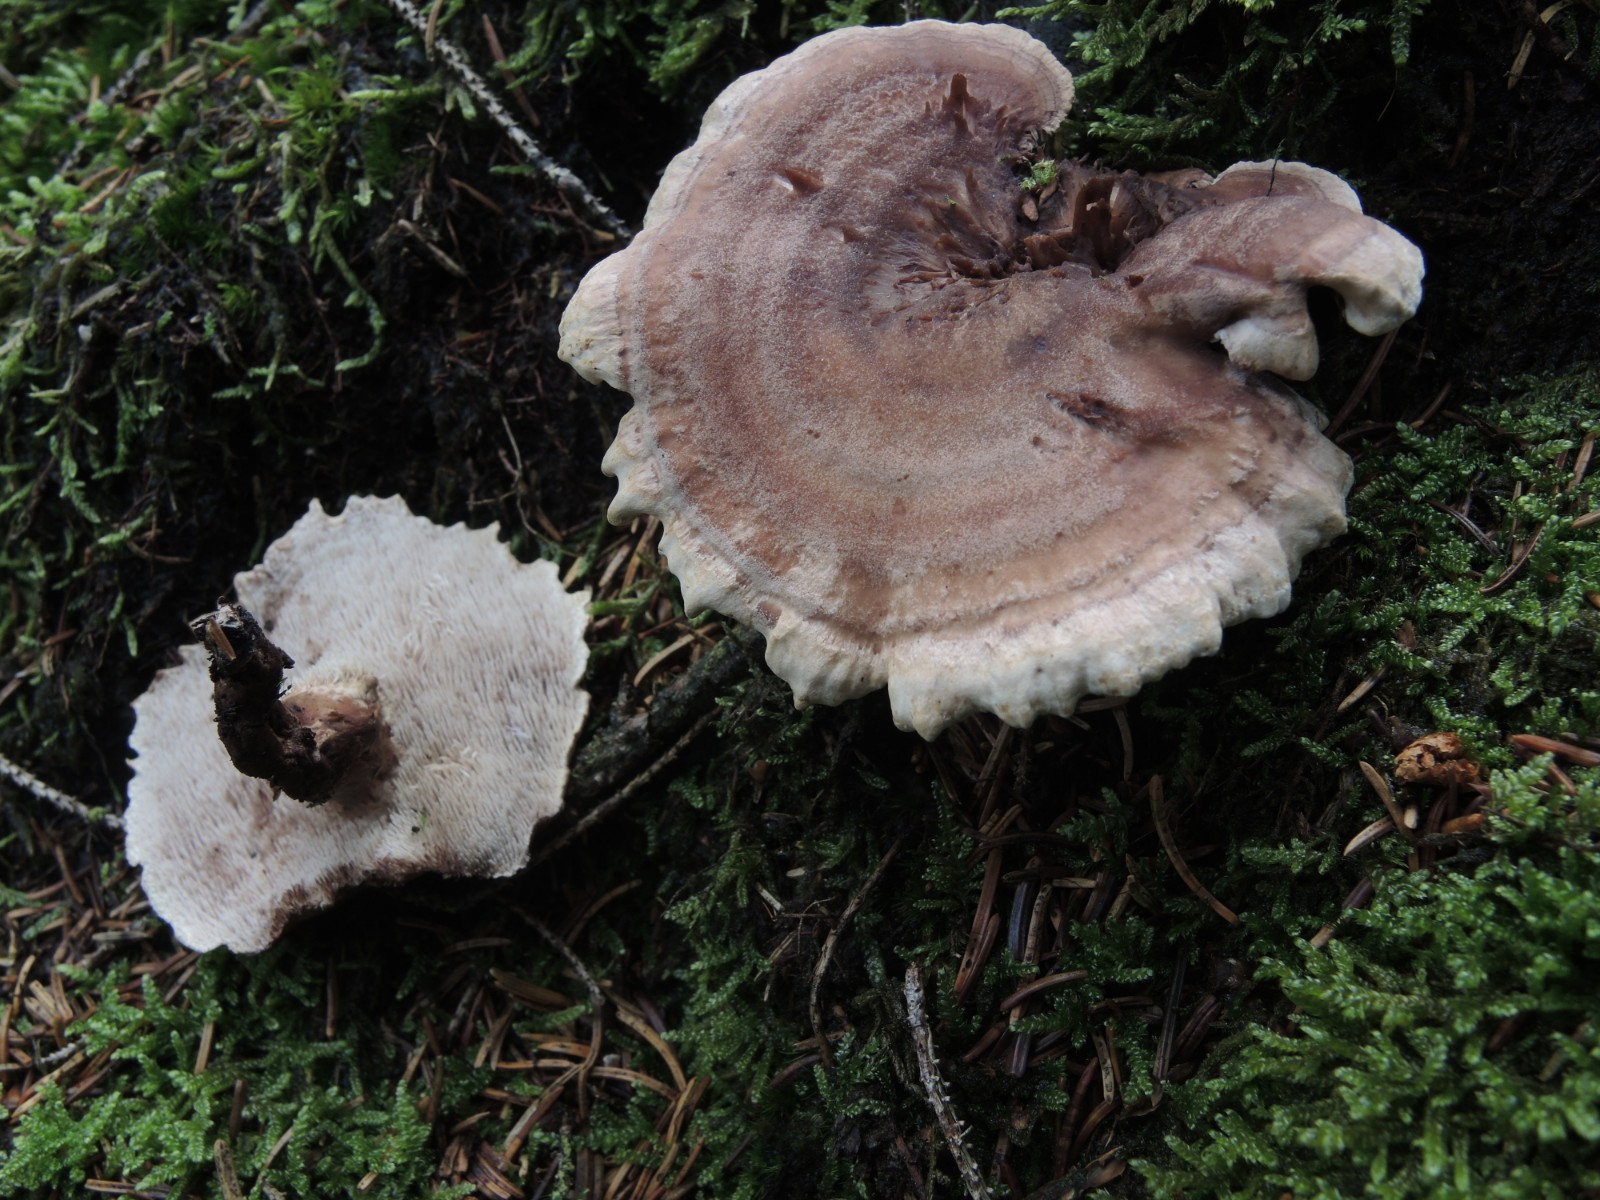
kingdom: Fungi
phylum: Basidiomycota
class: Agaricomycetes
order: Thelephorales
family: Thelephoraceae
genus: Phellodon
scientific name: Phellodon violascens
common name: violetbrun duftpigsvamp
